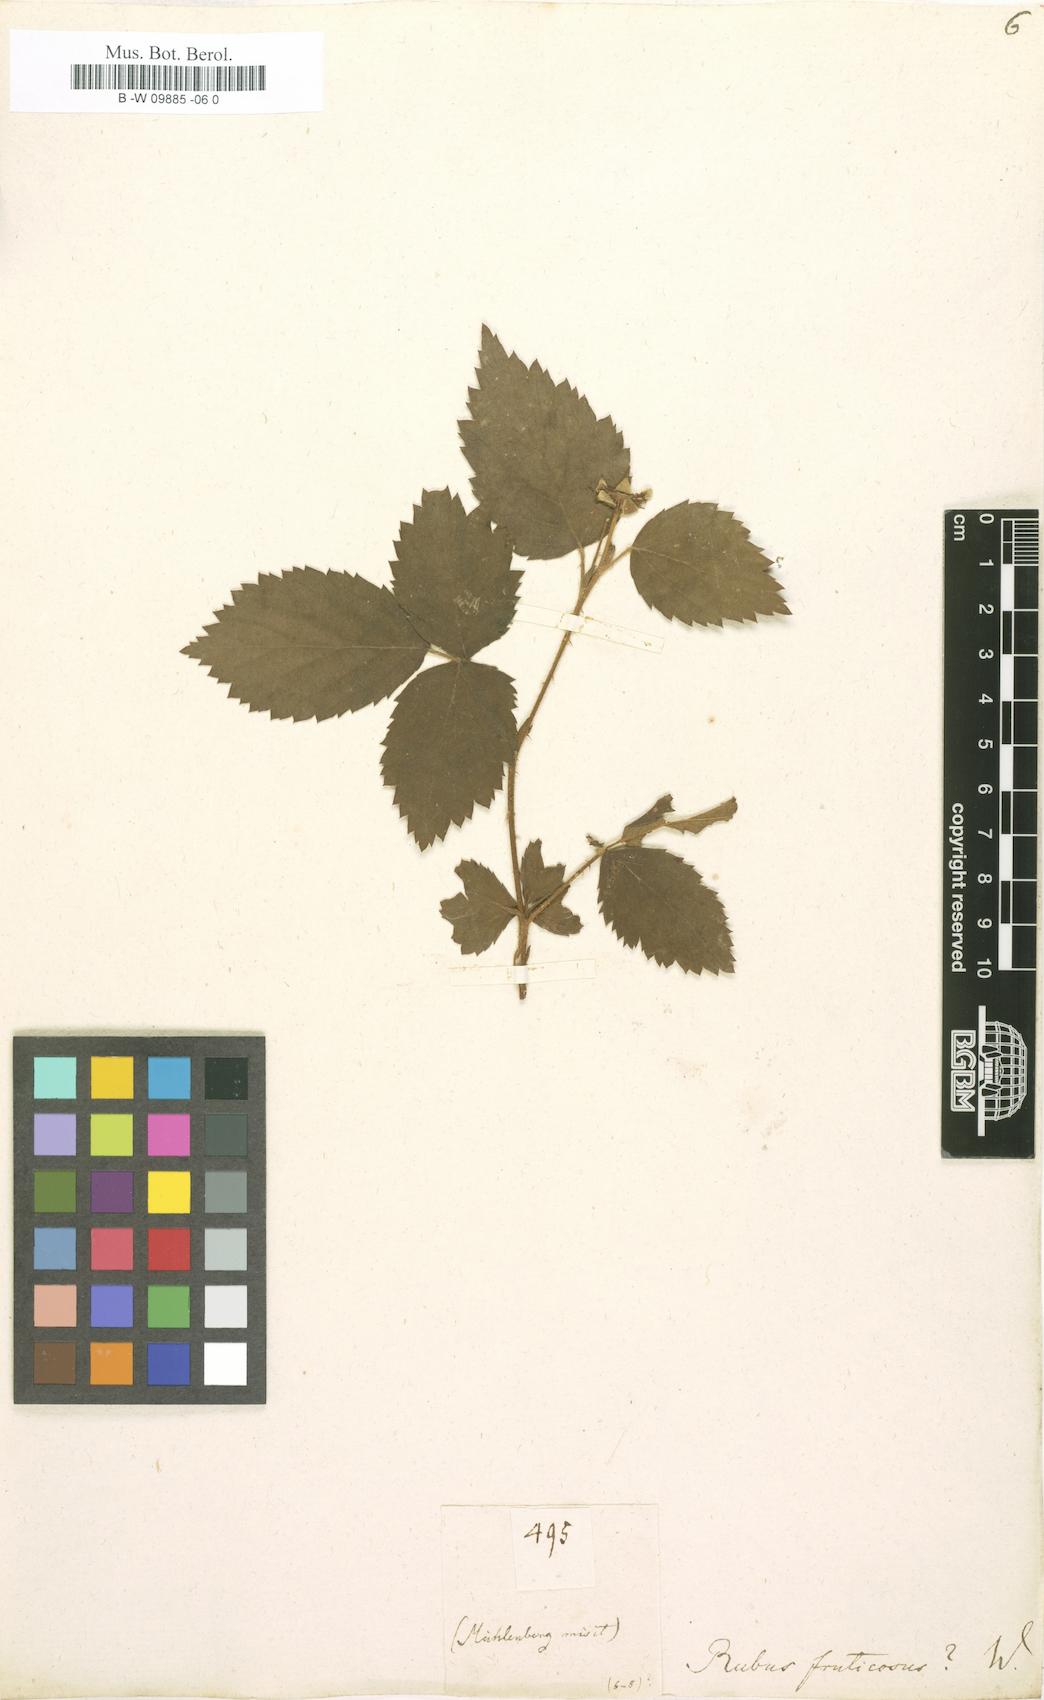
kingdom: Plantae
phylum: Tracheophyta
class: Magnoliopsida
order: Rosales
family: Rosaceae
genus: Rubus
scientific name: Rubus fruticosus
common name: Blackberry, bramble
